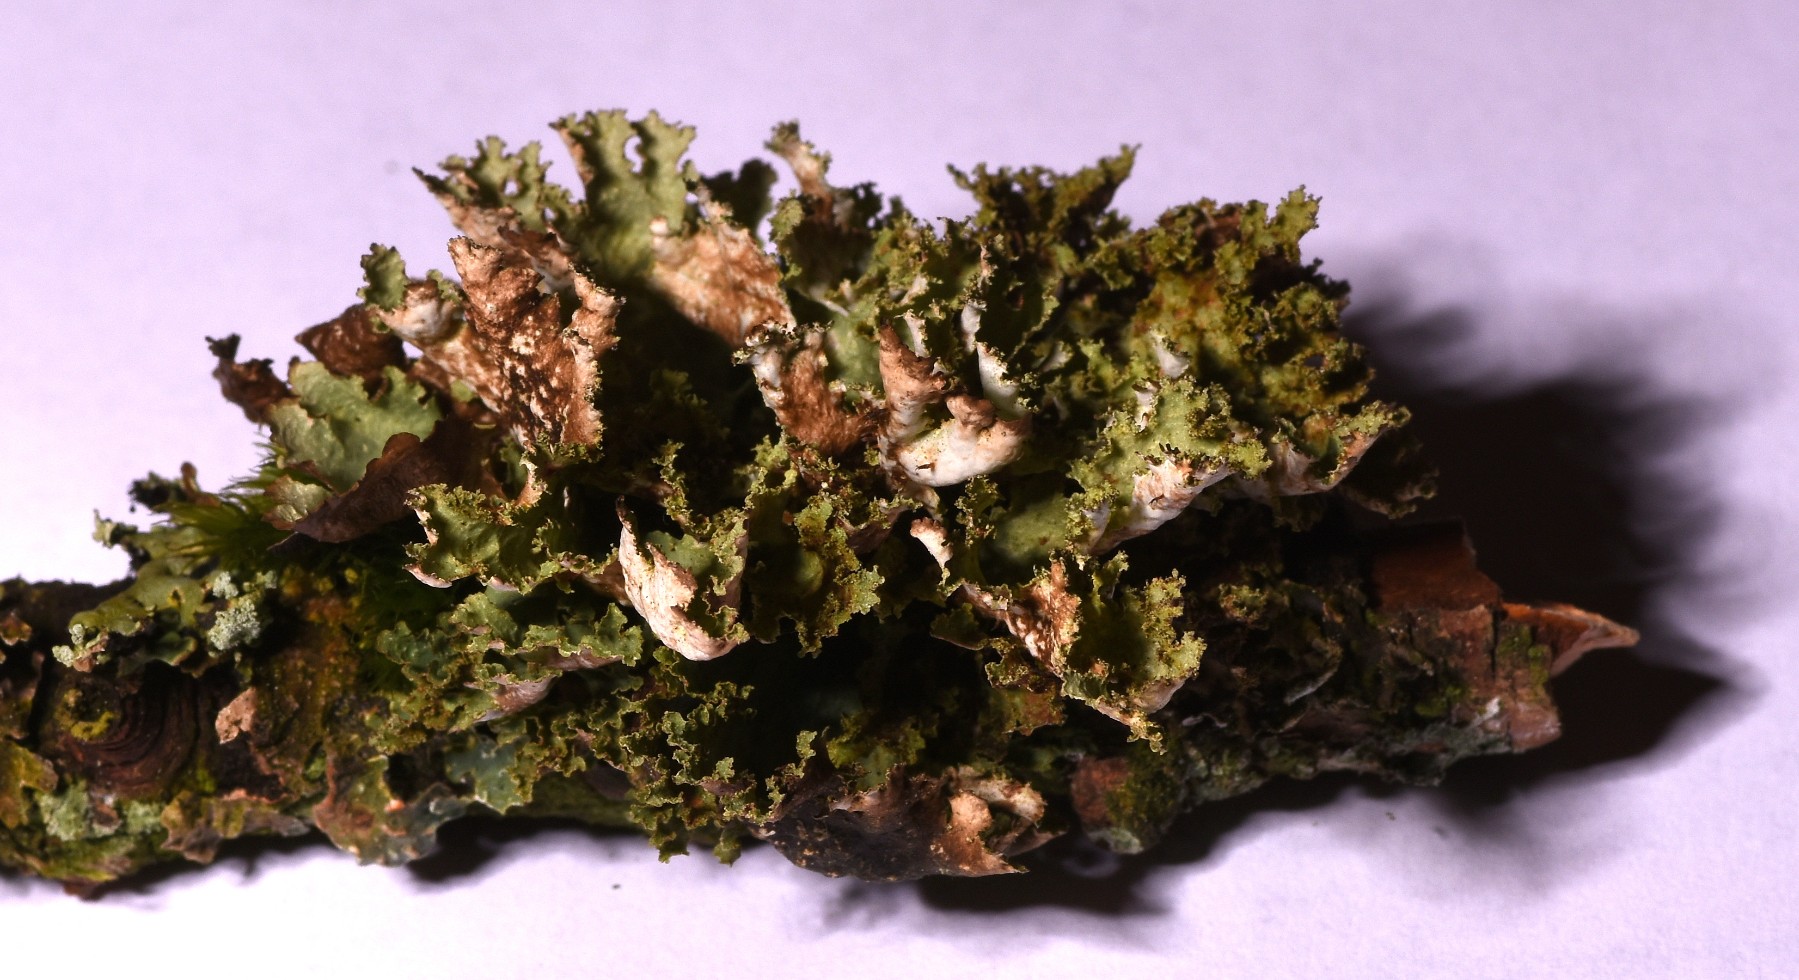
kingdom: Fungi
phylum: Ascomycota
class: Lecanoromycetes
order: Lecanorales
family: Parmeliaceae
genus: Platismatia
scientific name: Platismatia glauca
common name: blågrå papirlav
